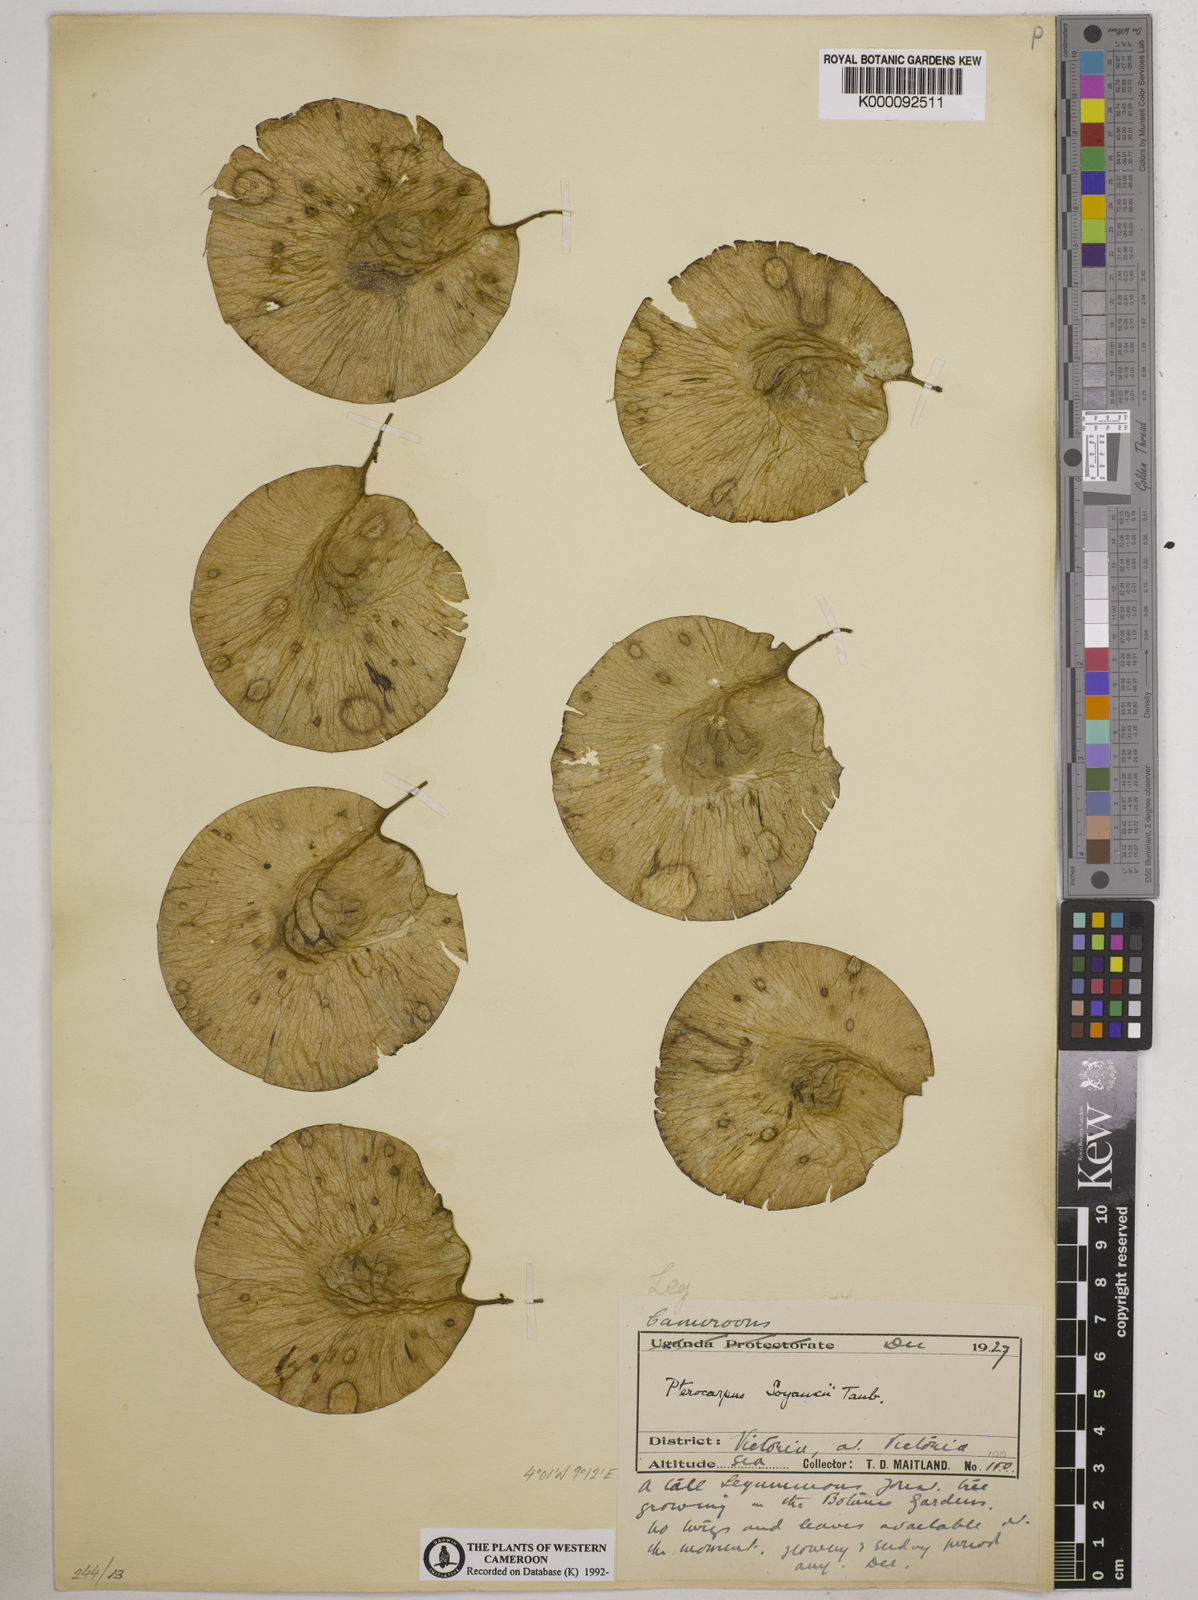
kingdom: Plantae
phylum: Tracheophyta
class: Magnoliopsida
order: Fabales
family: Fabaceae
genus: Pterocarpus
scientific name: Pterocarpus soyauxii
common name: African coralwood
